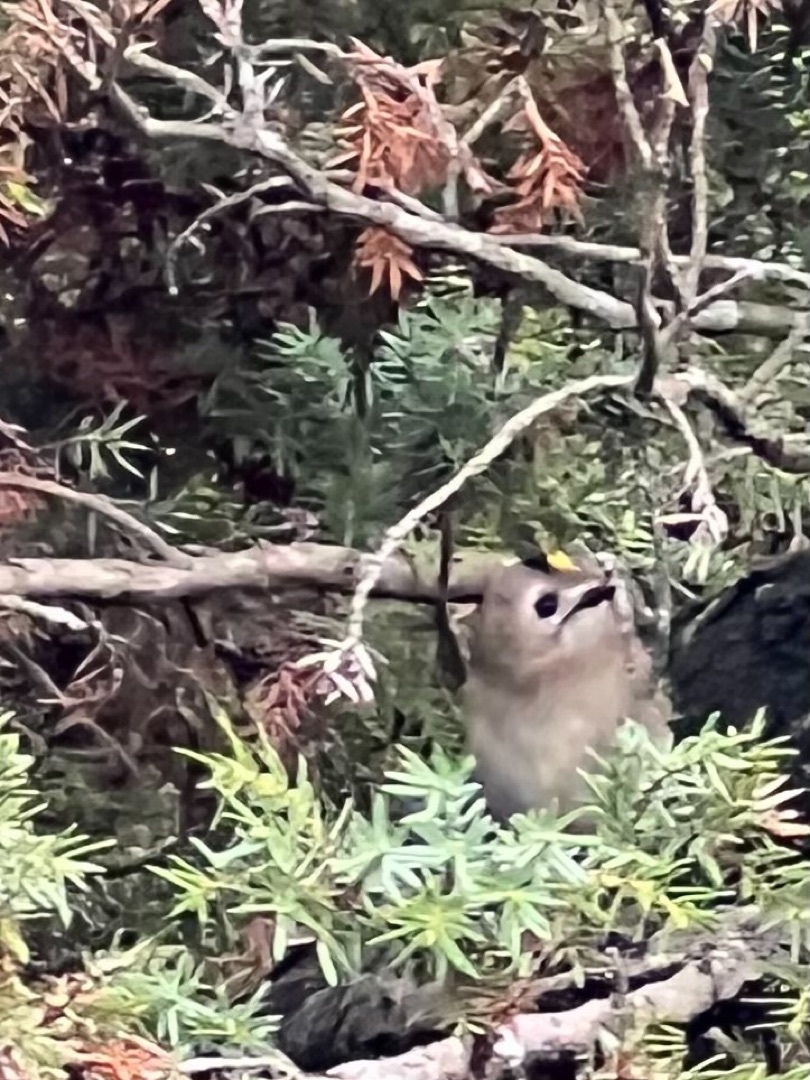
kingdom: Animalia
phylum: Chordata
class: Aves
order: Passeriformes
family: Regulidae
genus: Regulus
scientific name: Regulus regulus
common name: Fuglekonge
